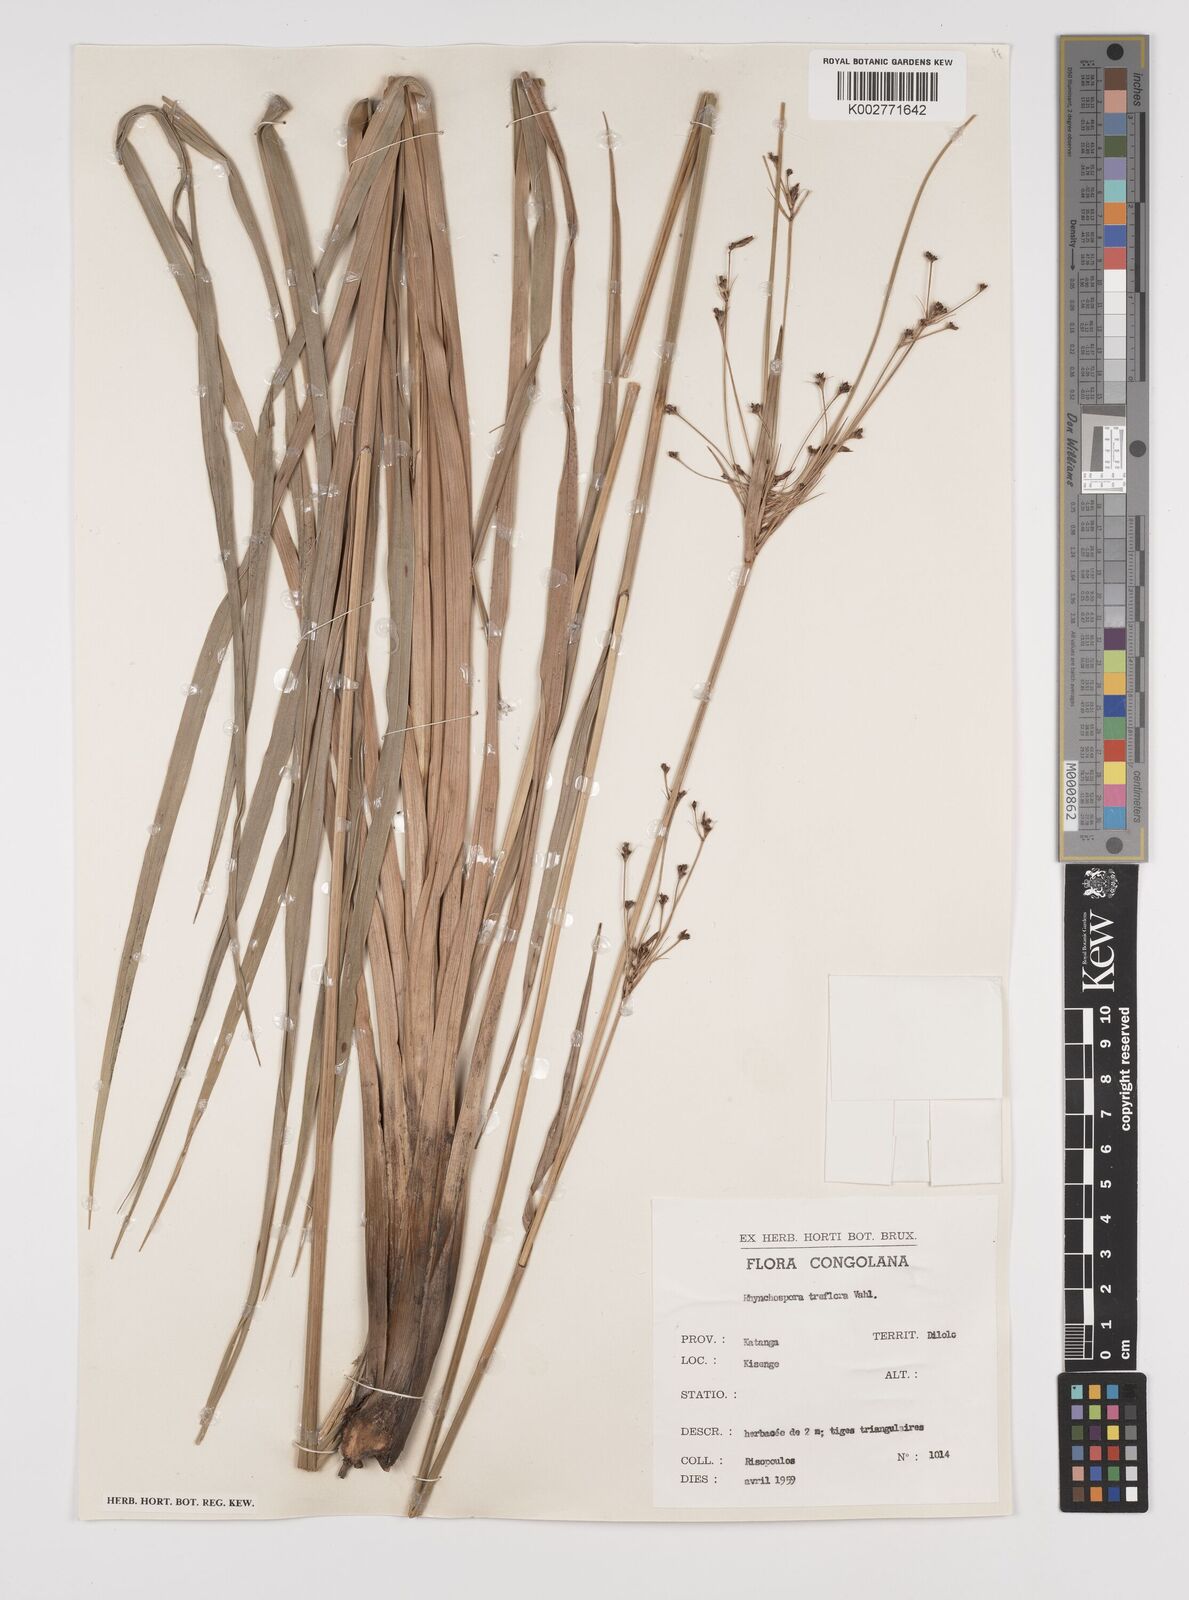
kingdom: Plantae
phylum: Tracheophyta
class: Liliopsida
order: Poales
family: Cyperaceae
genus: Rhynchospora
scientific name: Rhynchospora triflora
